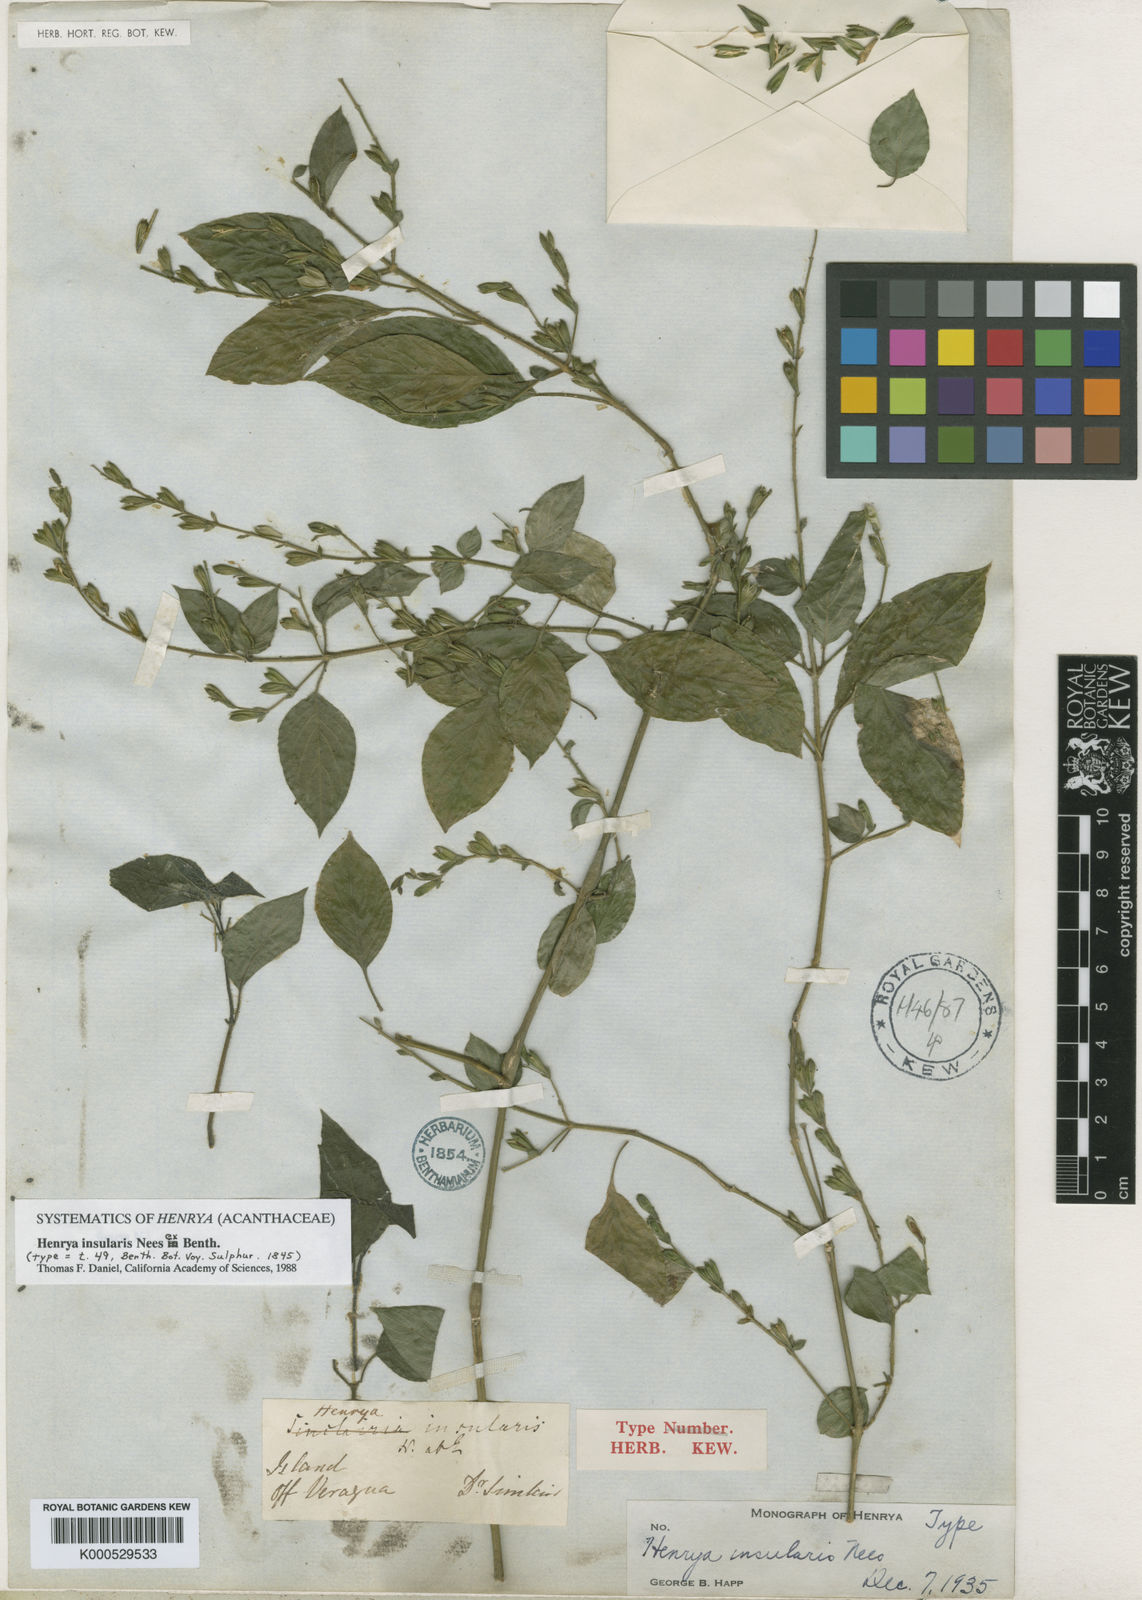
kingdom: Plantae
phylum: Tracheophyta
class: Magnoliopsida
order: Lamiales
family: Acanthaceae
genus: Henrya
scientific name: Henrya
